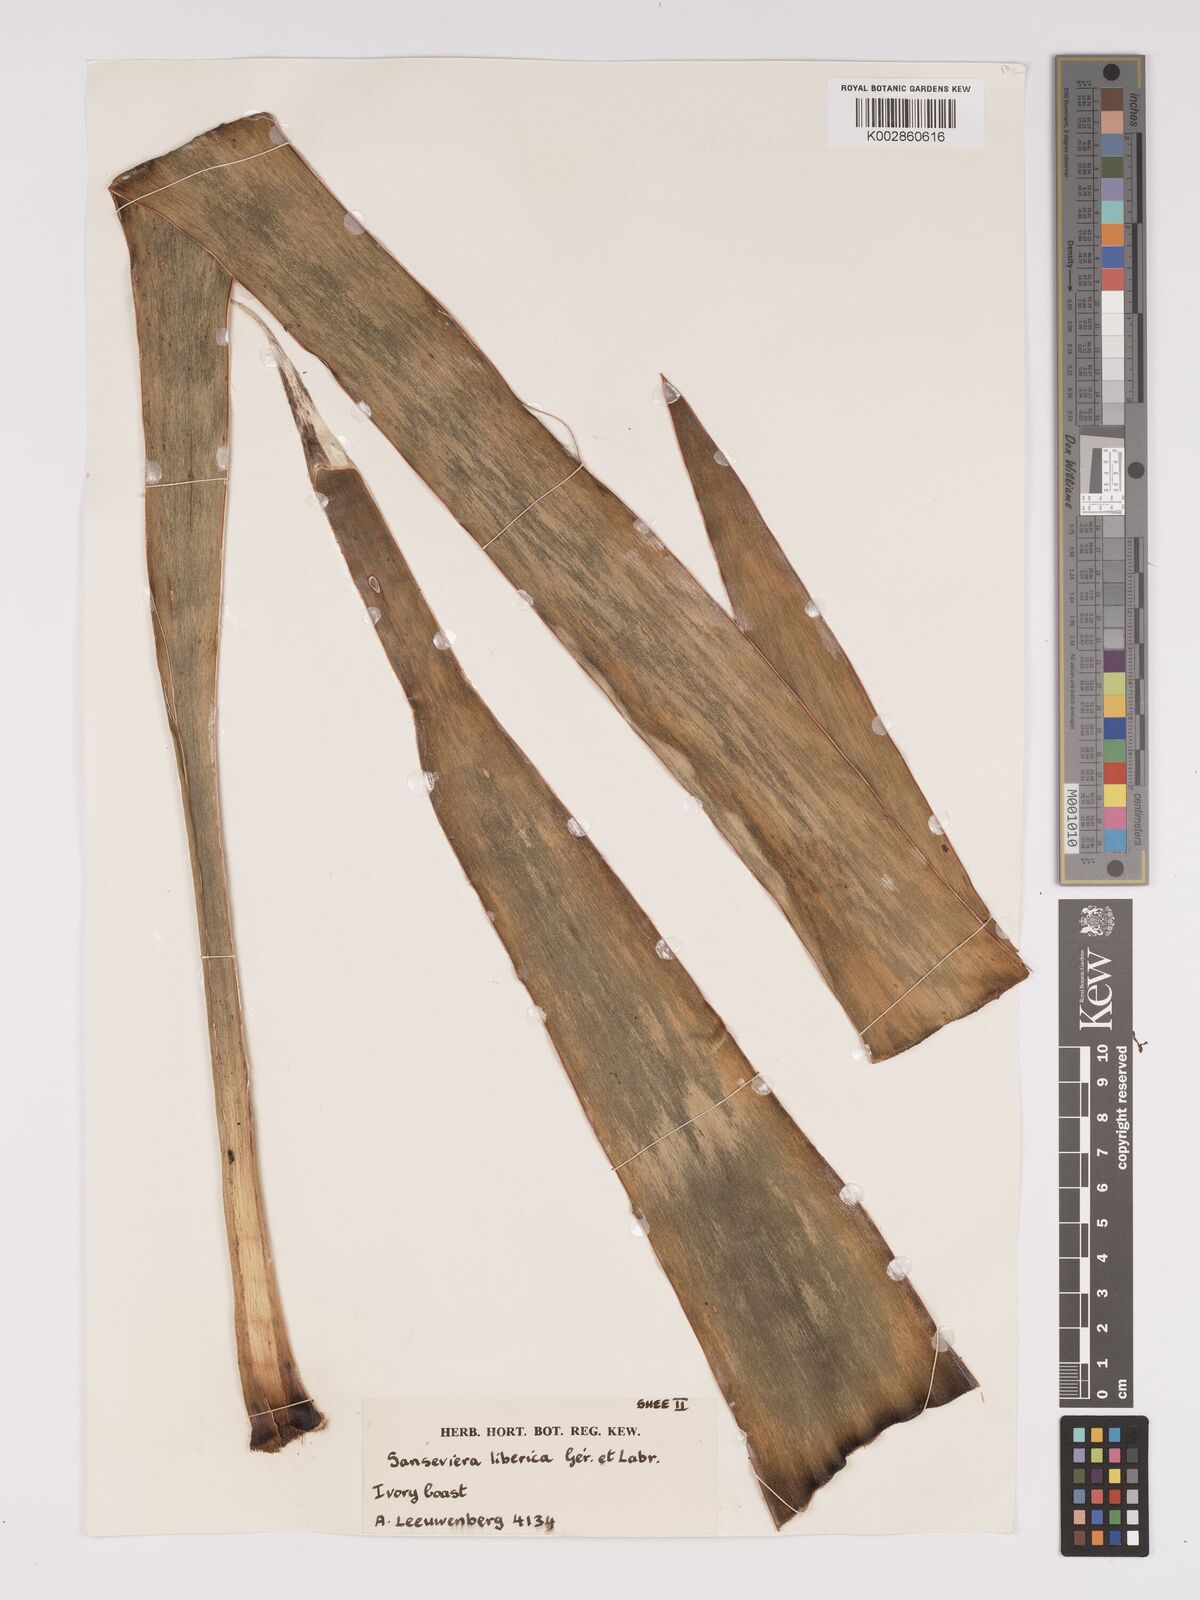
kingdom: Plantae
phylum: Tracheophyta
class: Liliopsida
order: Asparagales
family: Asparagaceae
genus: Dracaena
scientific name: Dracaena liberica
